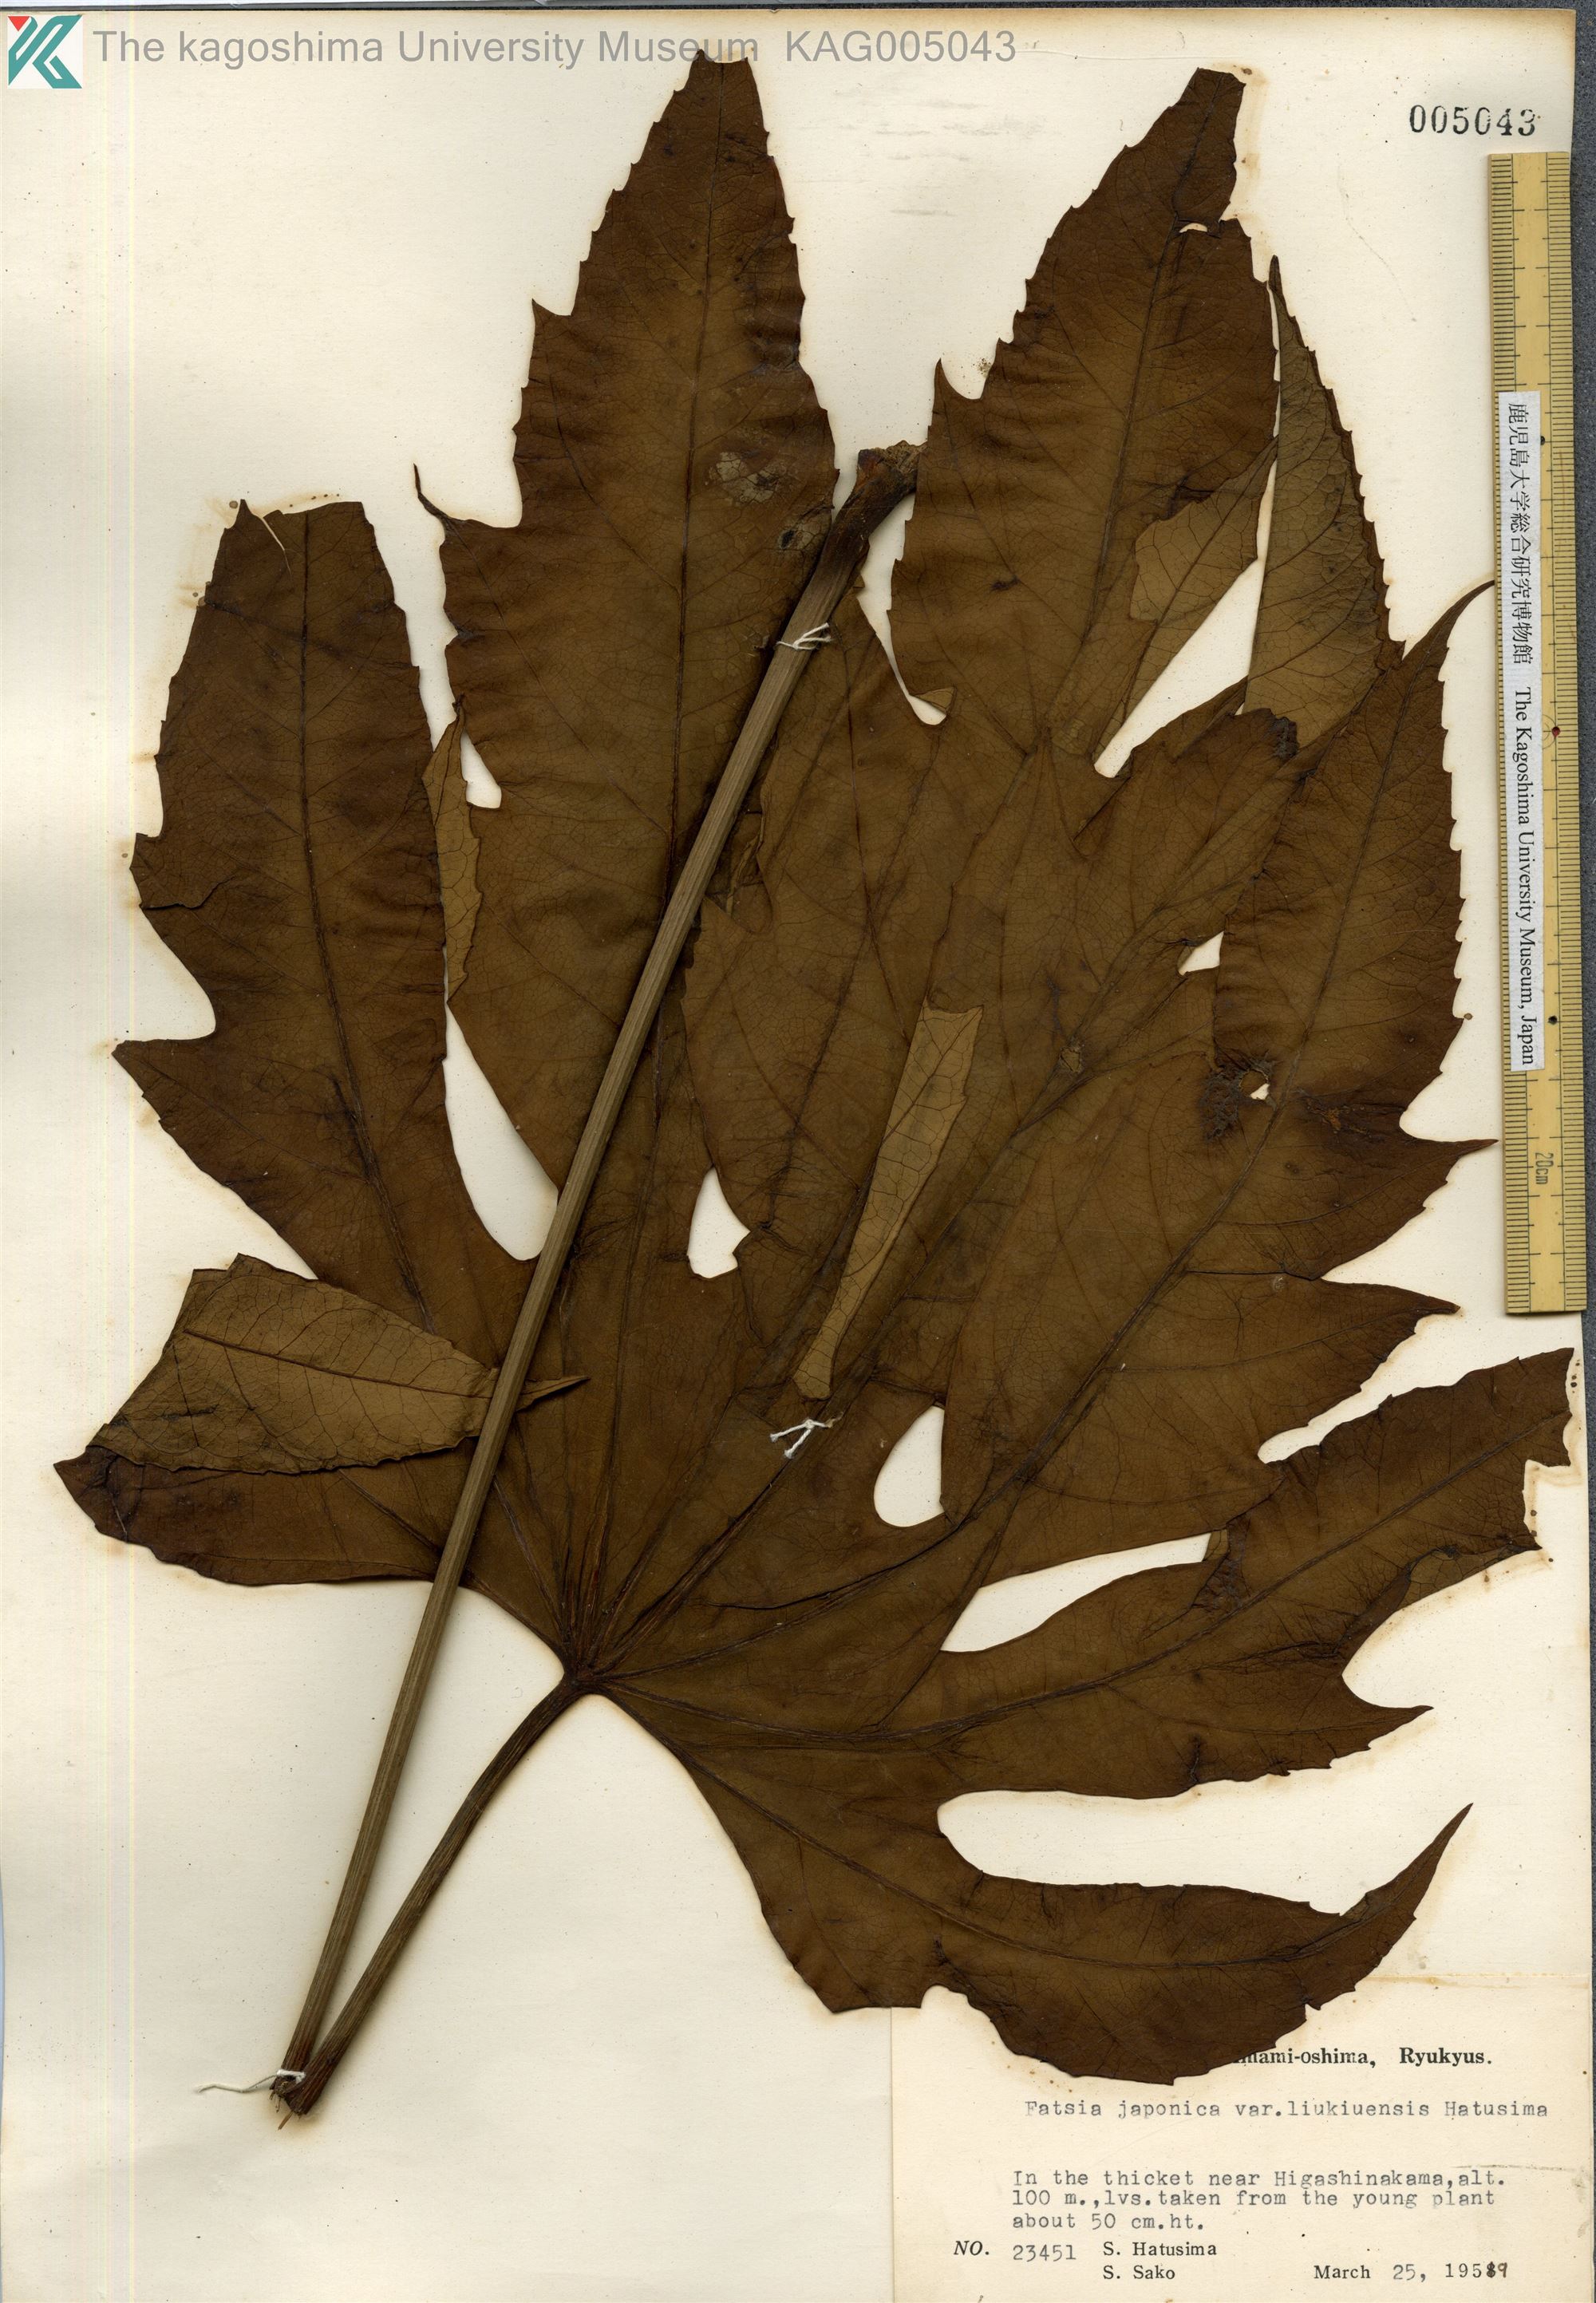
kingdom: Plantae
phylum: Tracheophyta
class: Magnoliopsida
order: Apiales
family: Araliaceae
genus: Fatsia
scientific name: Fatsia japonica
